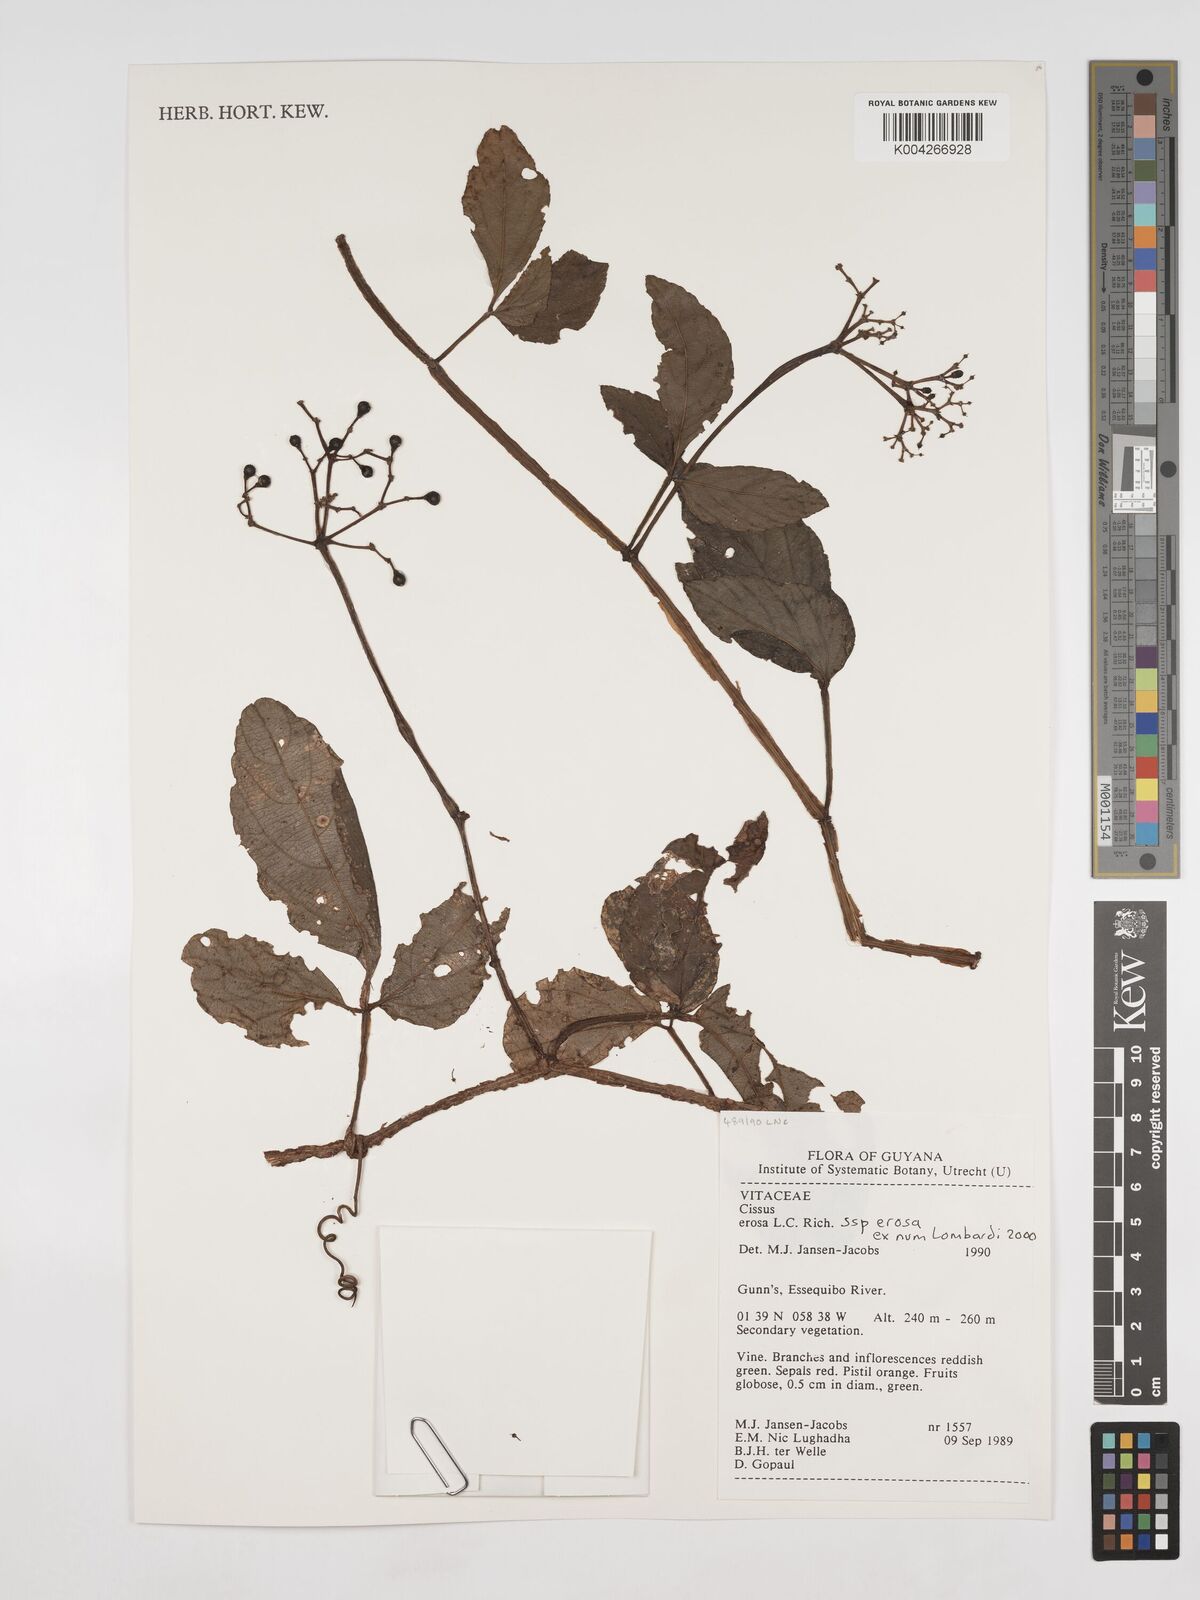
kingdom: Plantae
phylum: Tracheophyta
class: Magnoliopsida
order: Vitales
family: Vitaceae
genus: Cissus
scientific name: Cissus erosa
